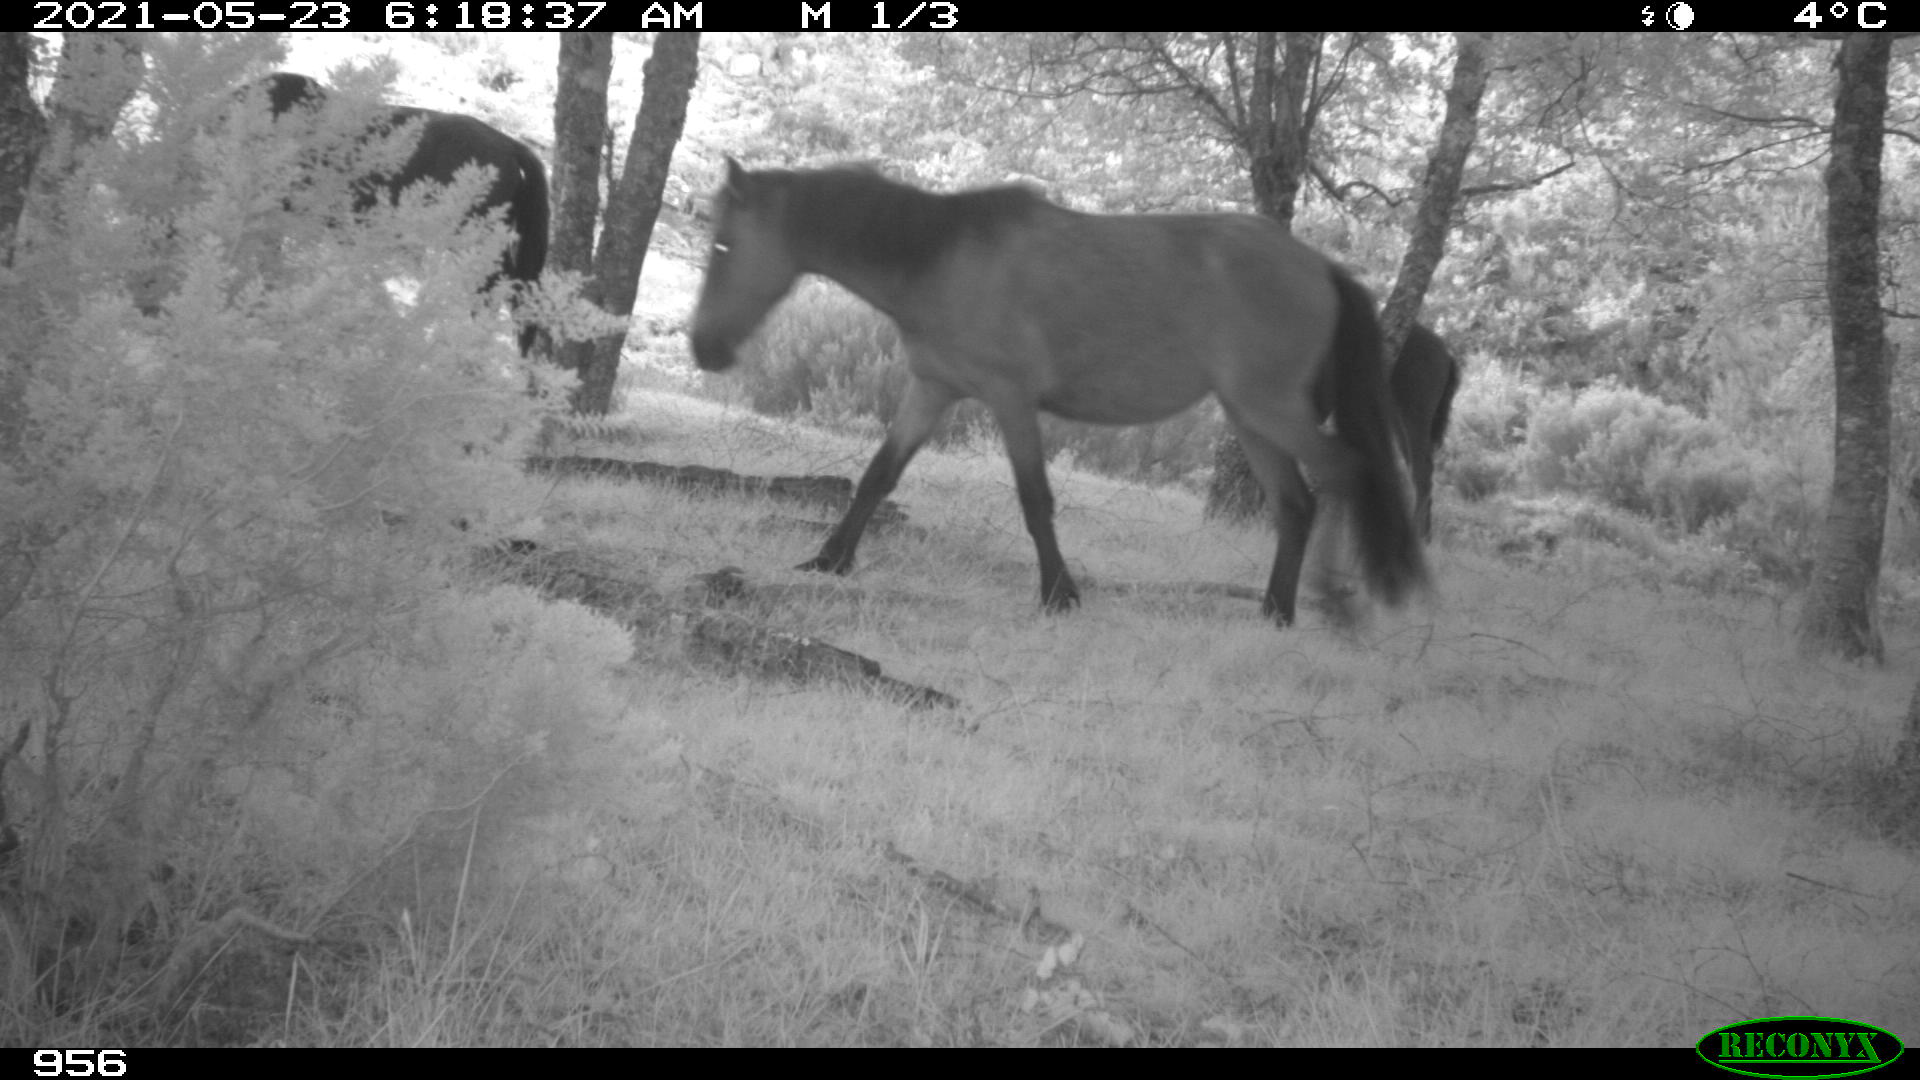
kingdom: Animalia
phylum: Chordata
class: Mammalia
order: Perissodactyla
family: Equidae
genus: Equus
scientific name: Equus caballus
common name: Horse
